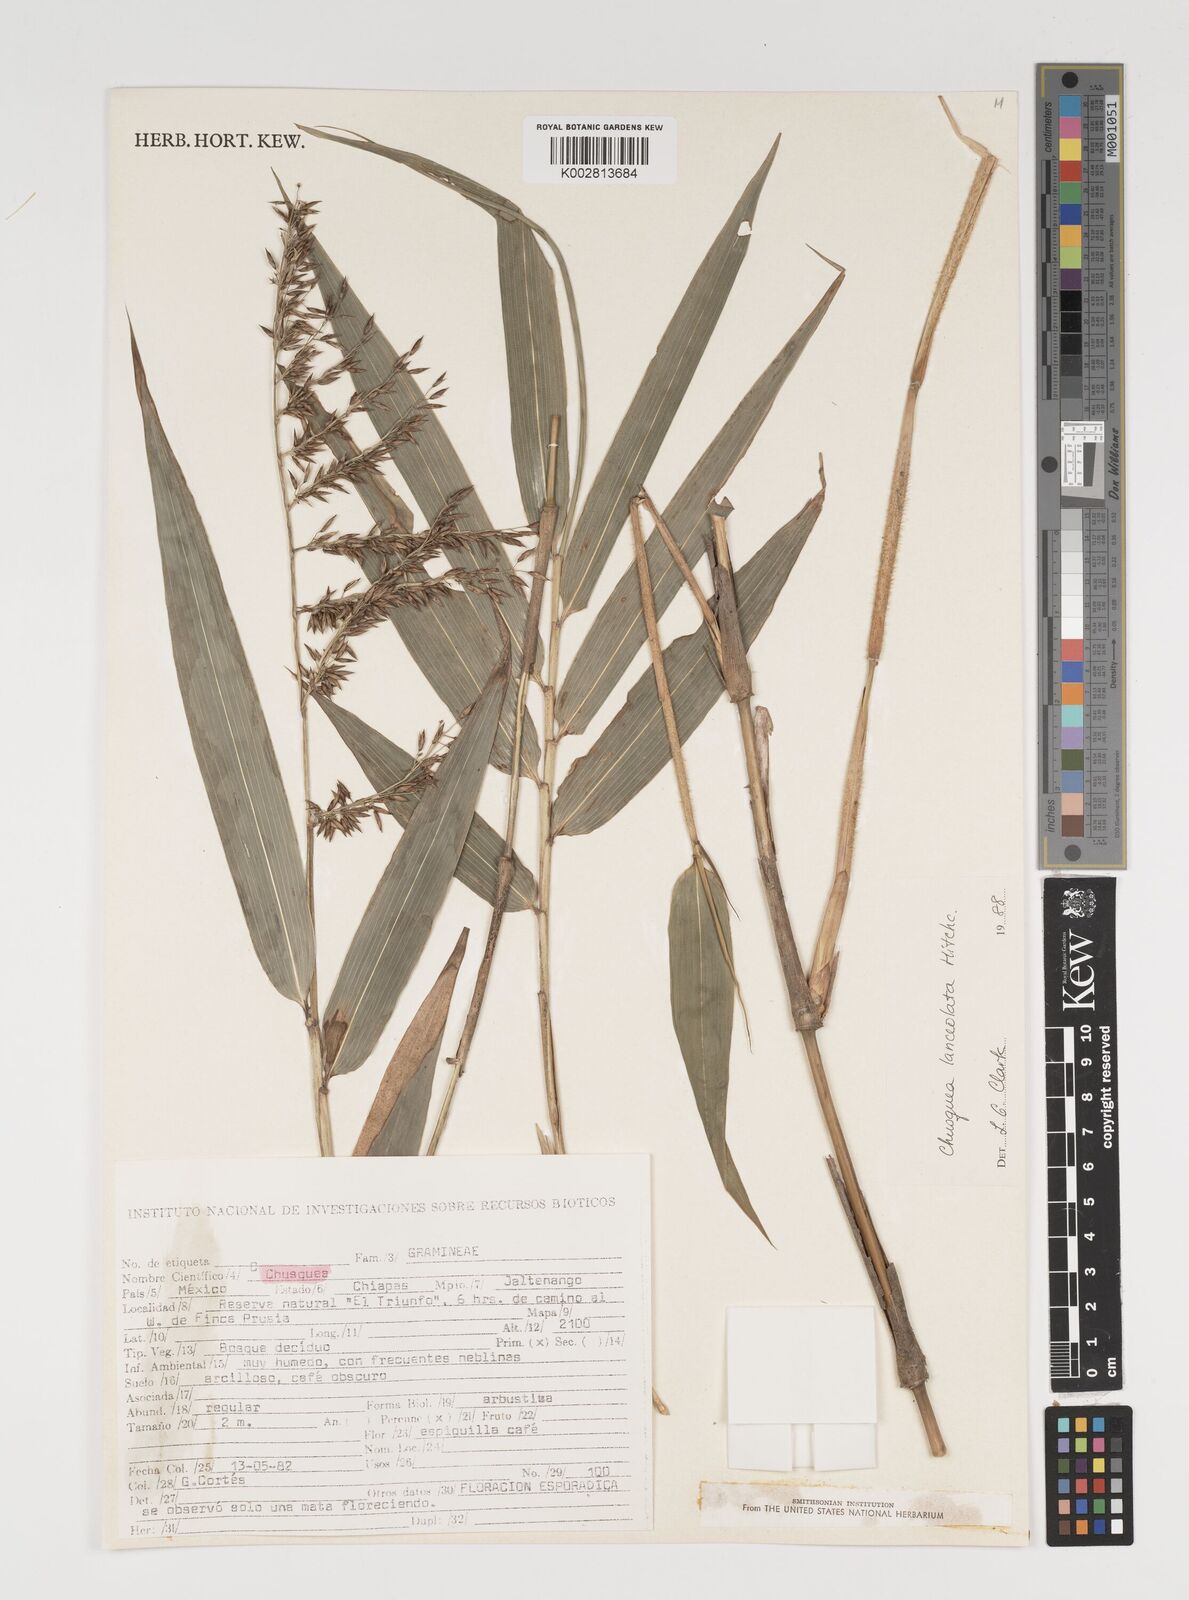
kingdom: Plantae
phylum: Tracheophyta
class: Liliopsida
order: Poales
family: Poaceae
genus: Chusquea
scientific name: Chusquea lanceolata
